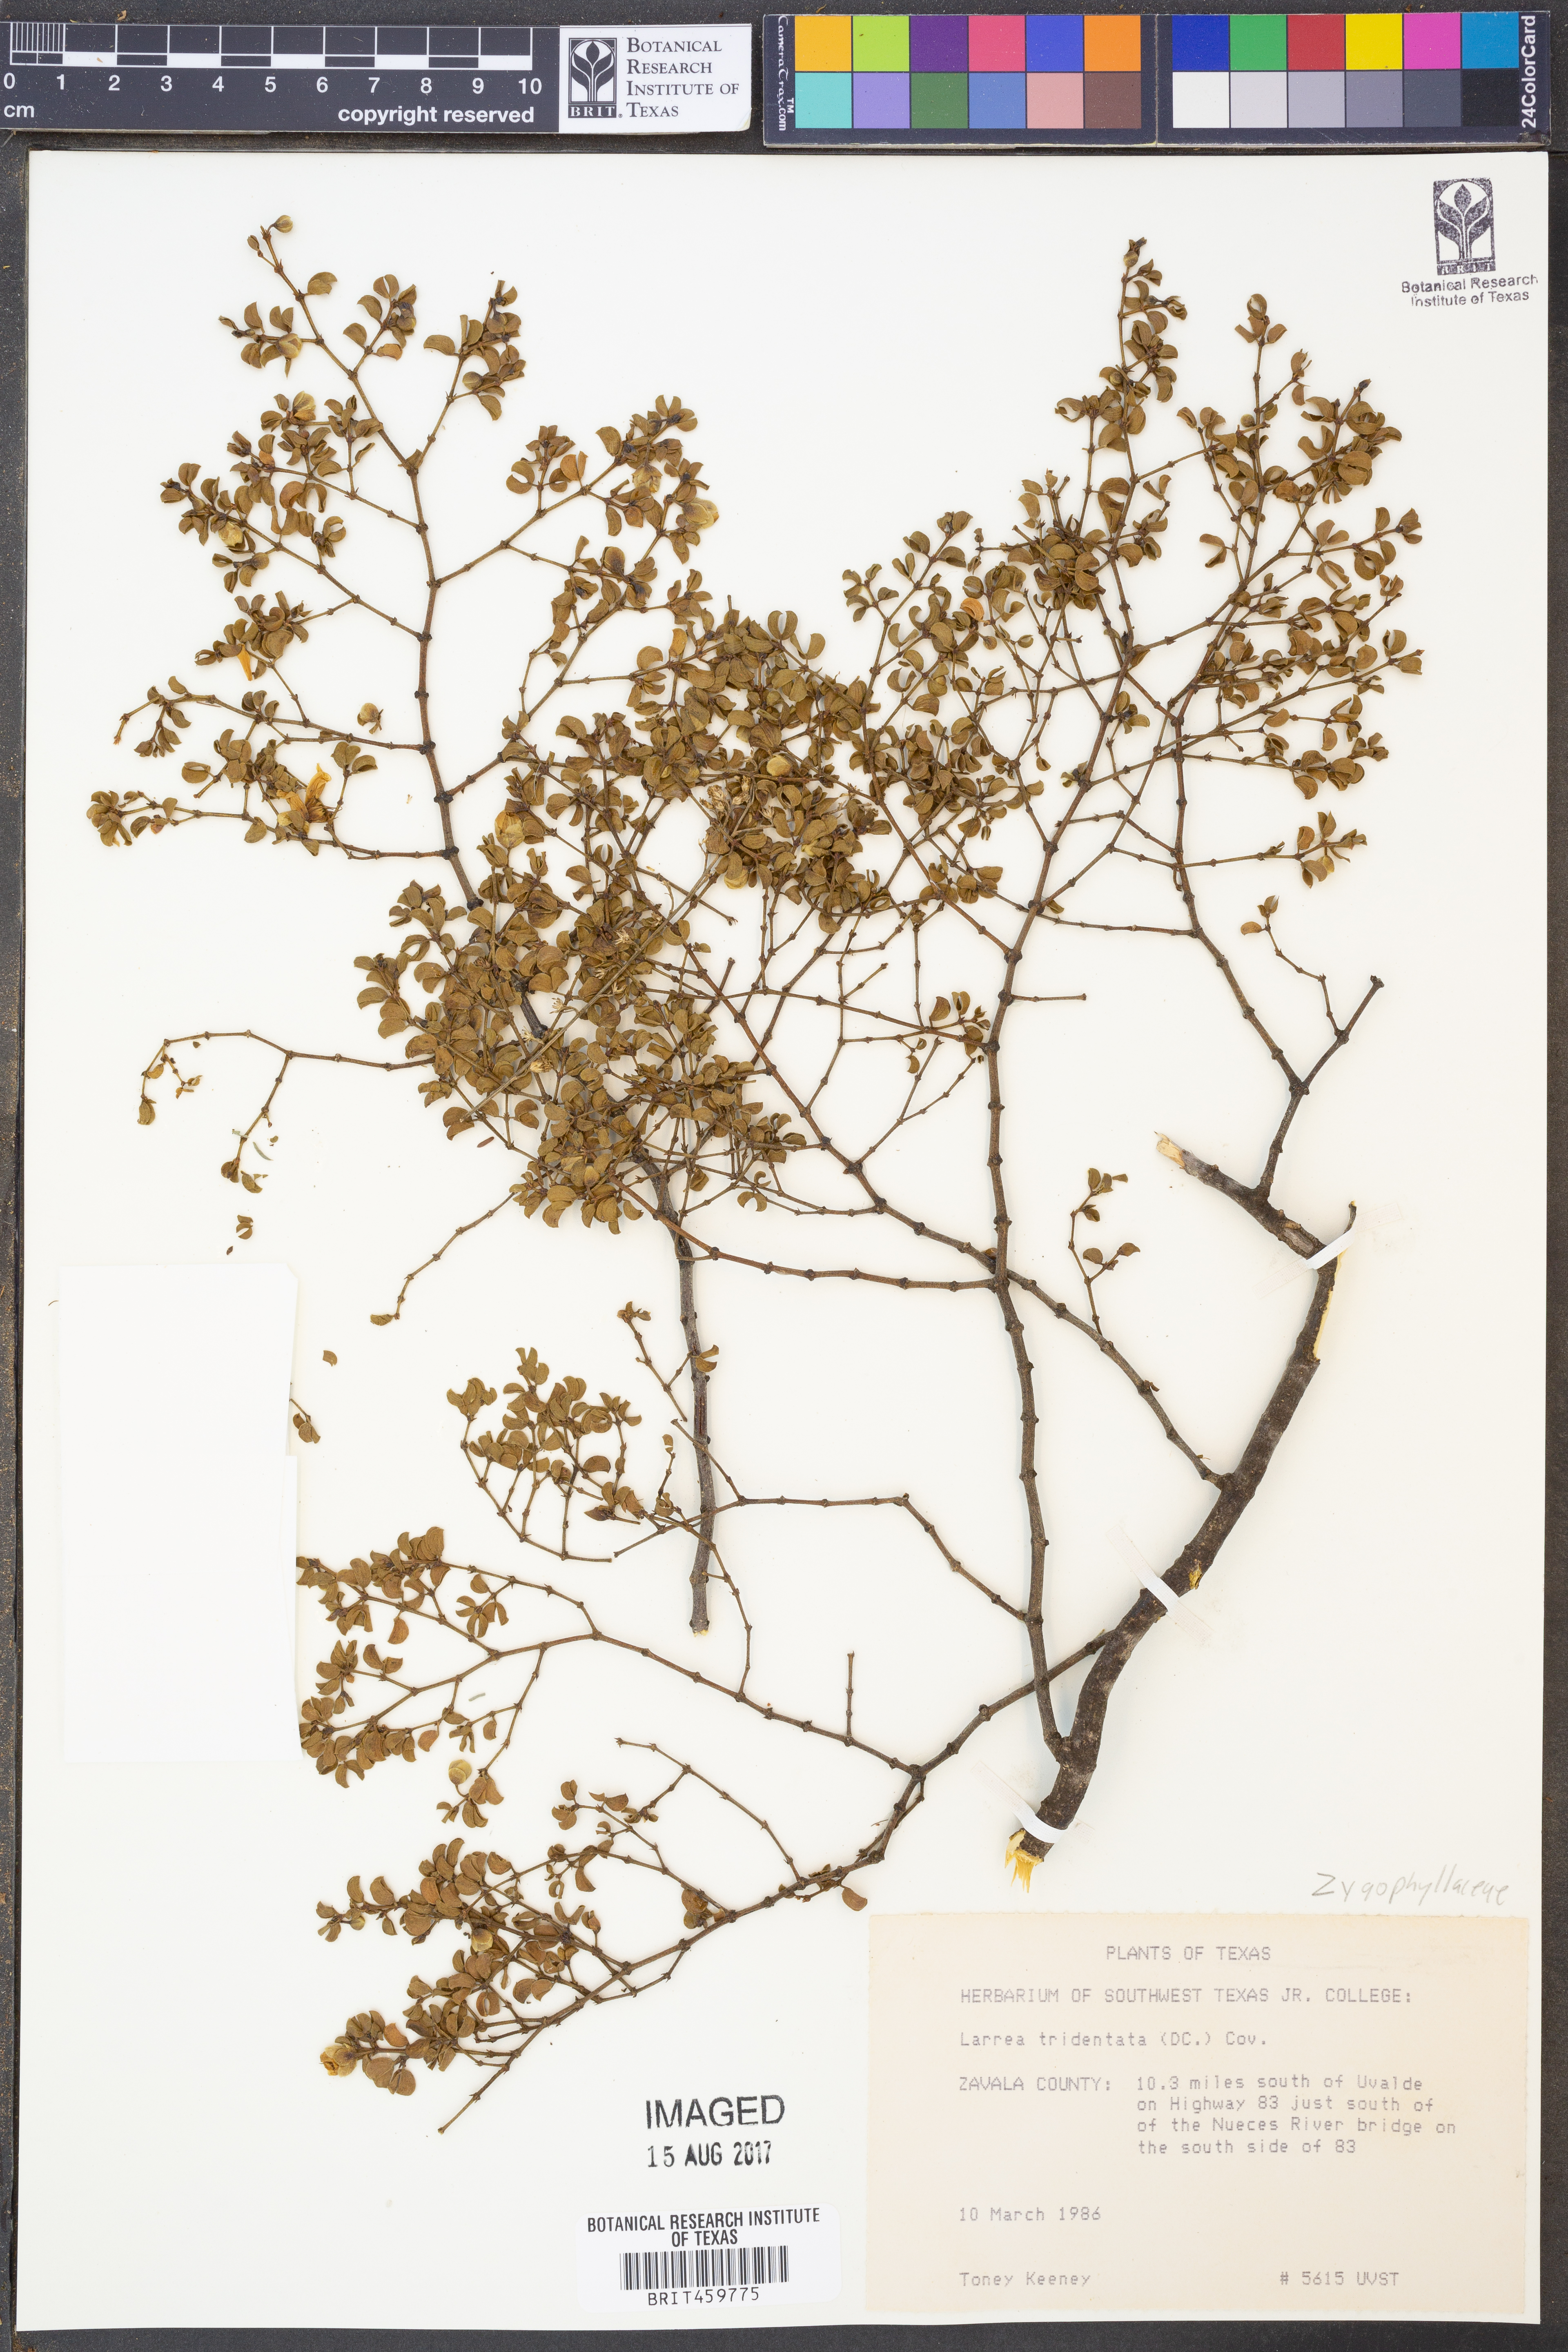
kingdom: Plantae
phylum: Tracheophyta
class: Magnoliopsida
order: Zygophyllales
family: Zygophyllaceae
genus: Larrea
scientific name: Larrea tridentata
